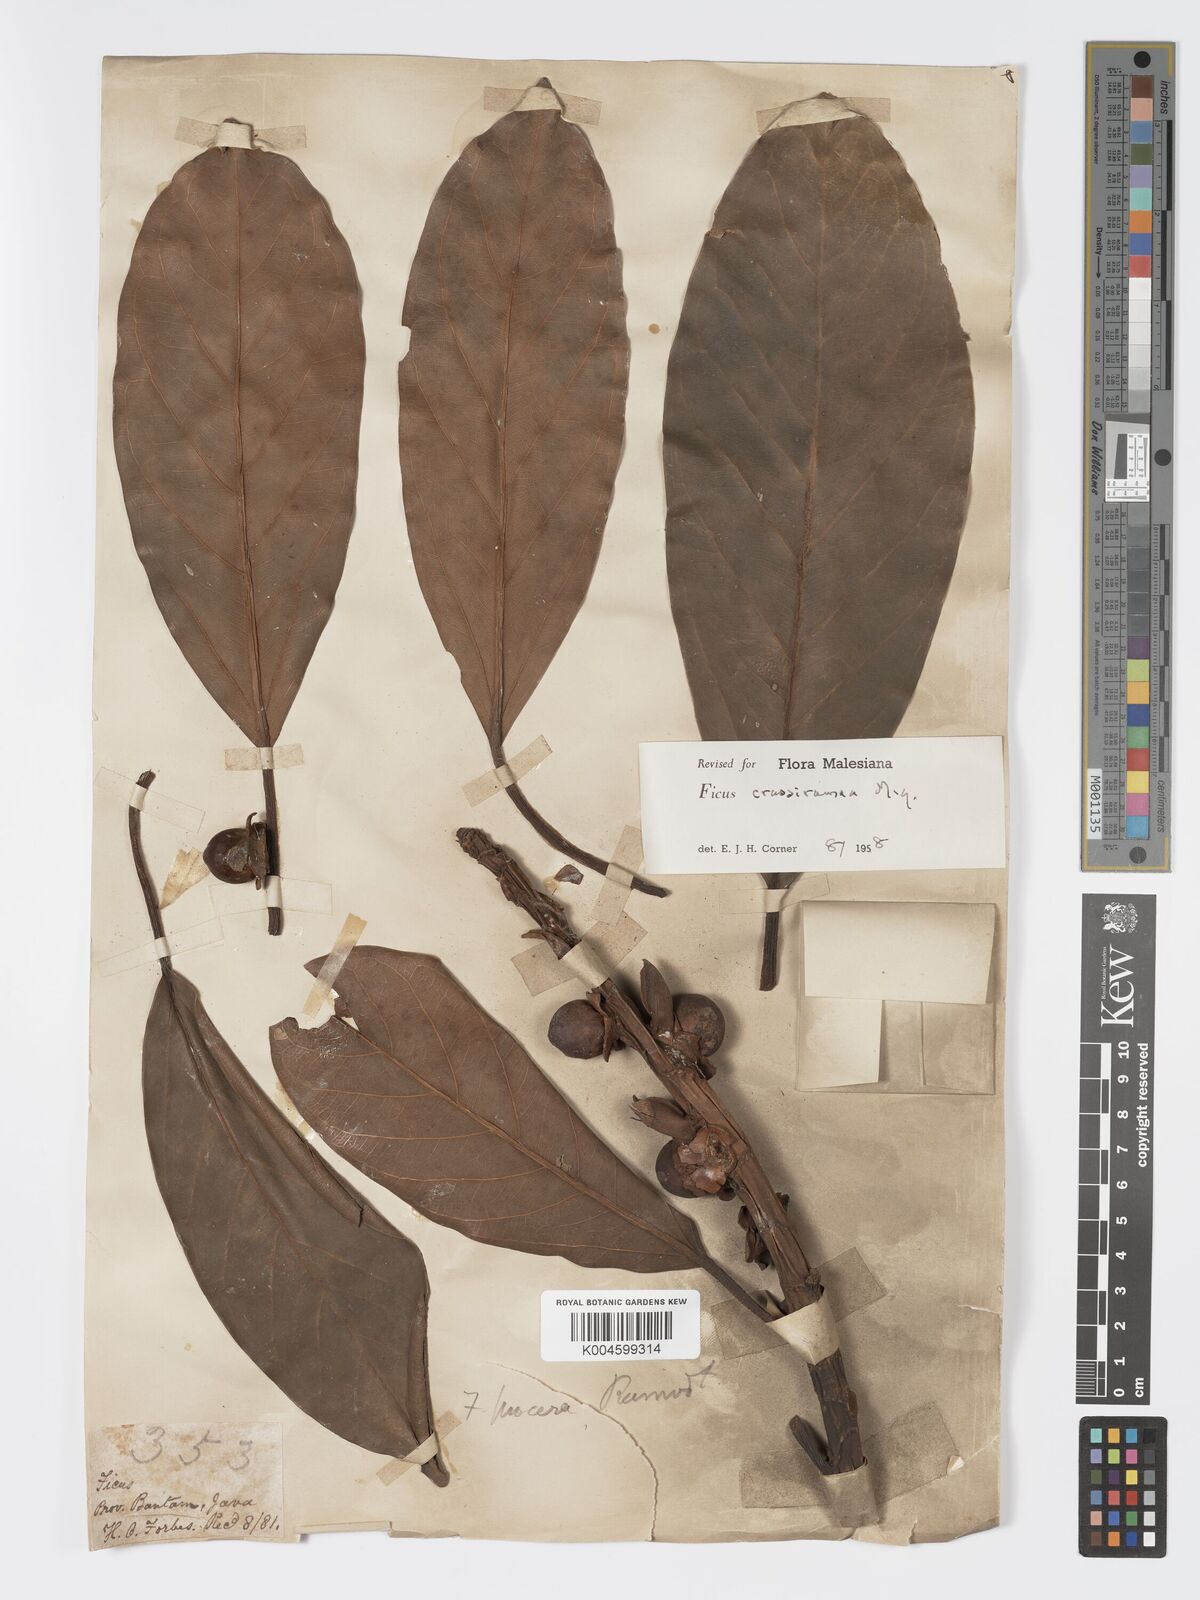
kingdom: Plantae
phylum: Tracheophyta
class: Magnoliopsida
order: Rosales
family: Moraceae
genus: Ficus
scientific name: Ficus crassiramea
